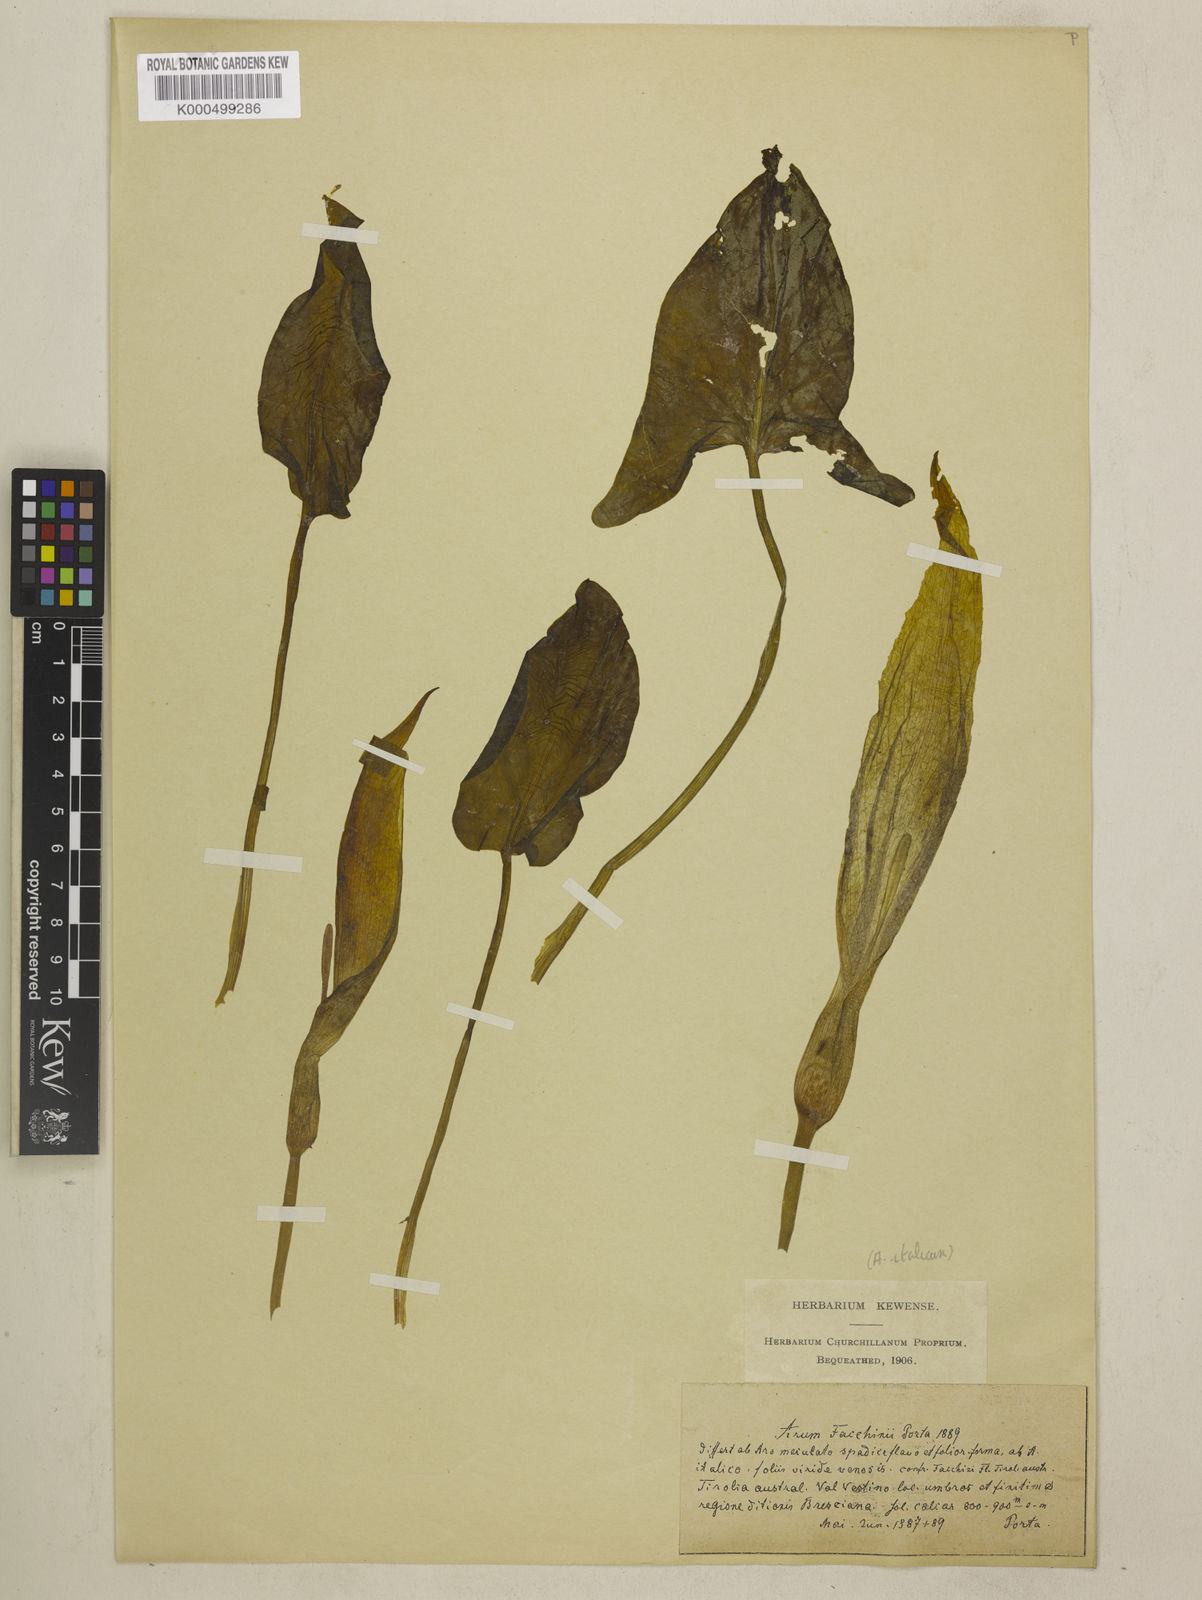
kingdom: Plantae
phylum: Tracheophyta
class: Liliopsida
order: Alismatales
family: Araceae
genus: Arum
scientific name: Arum italicum
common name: Italian lords-and-ladies
